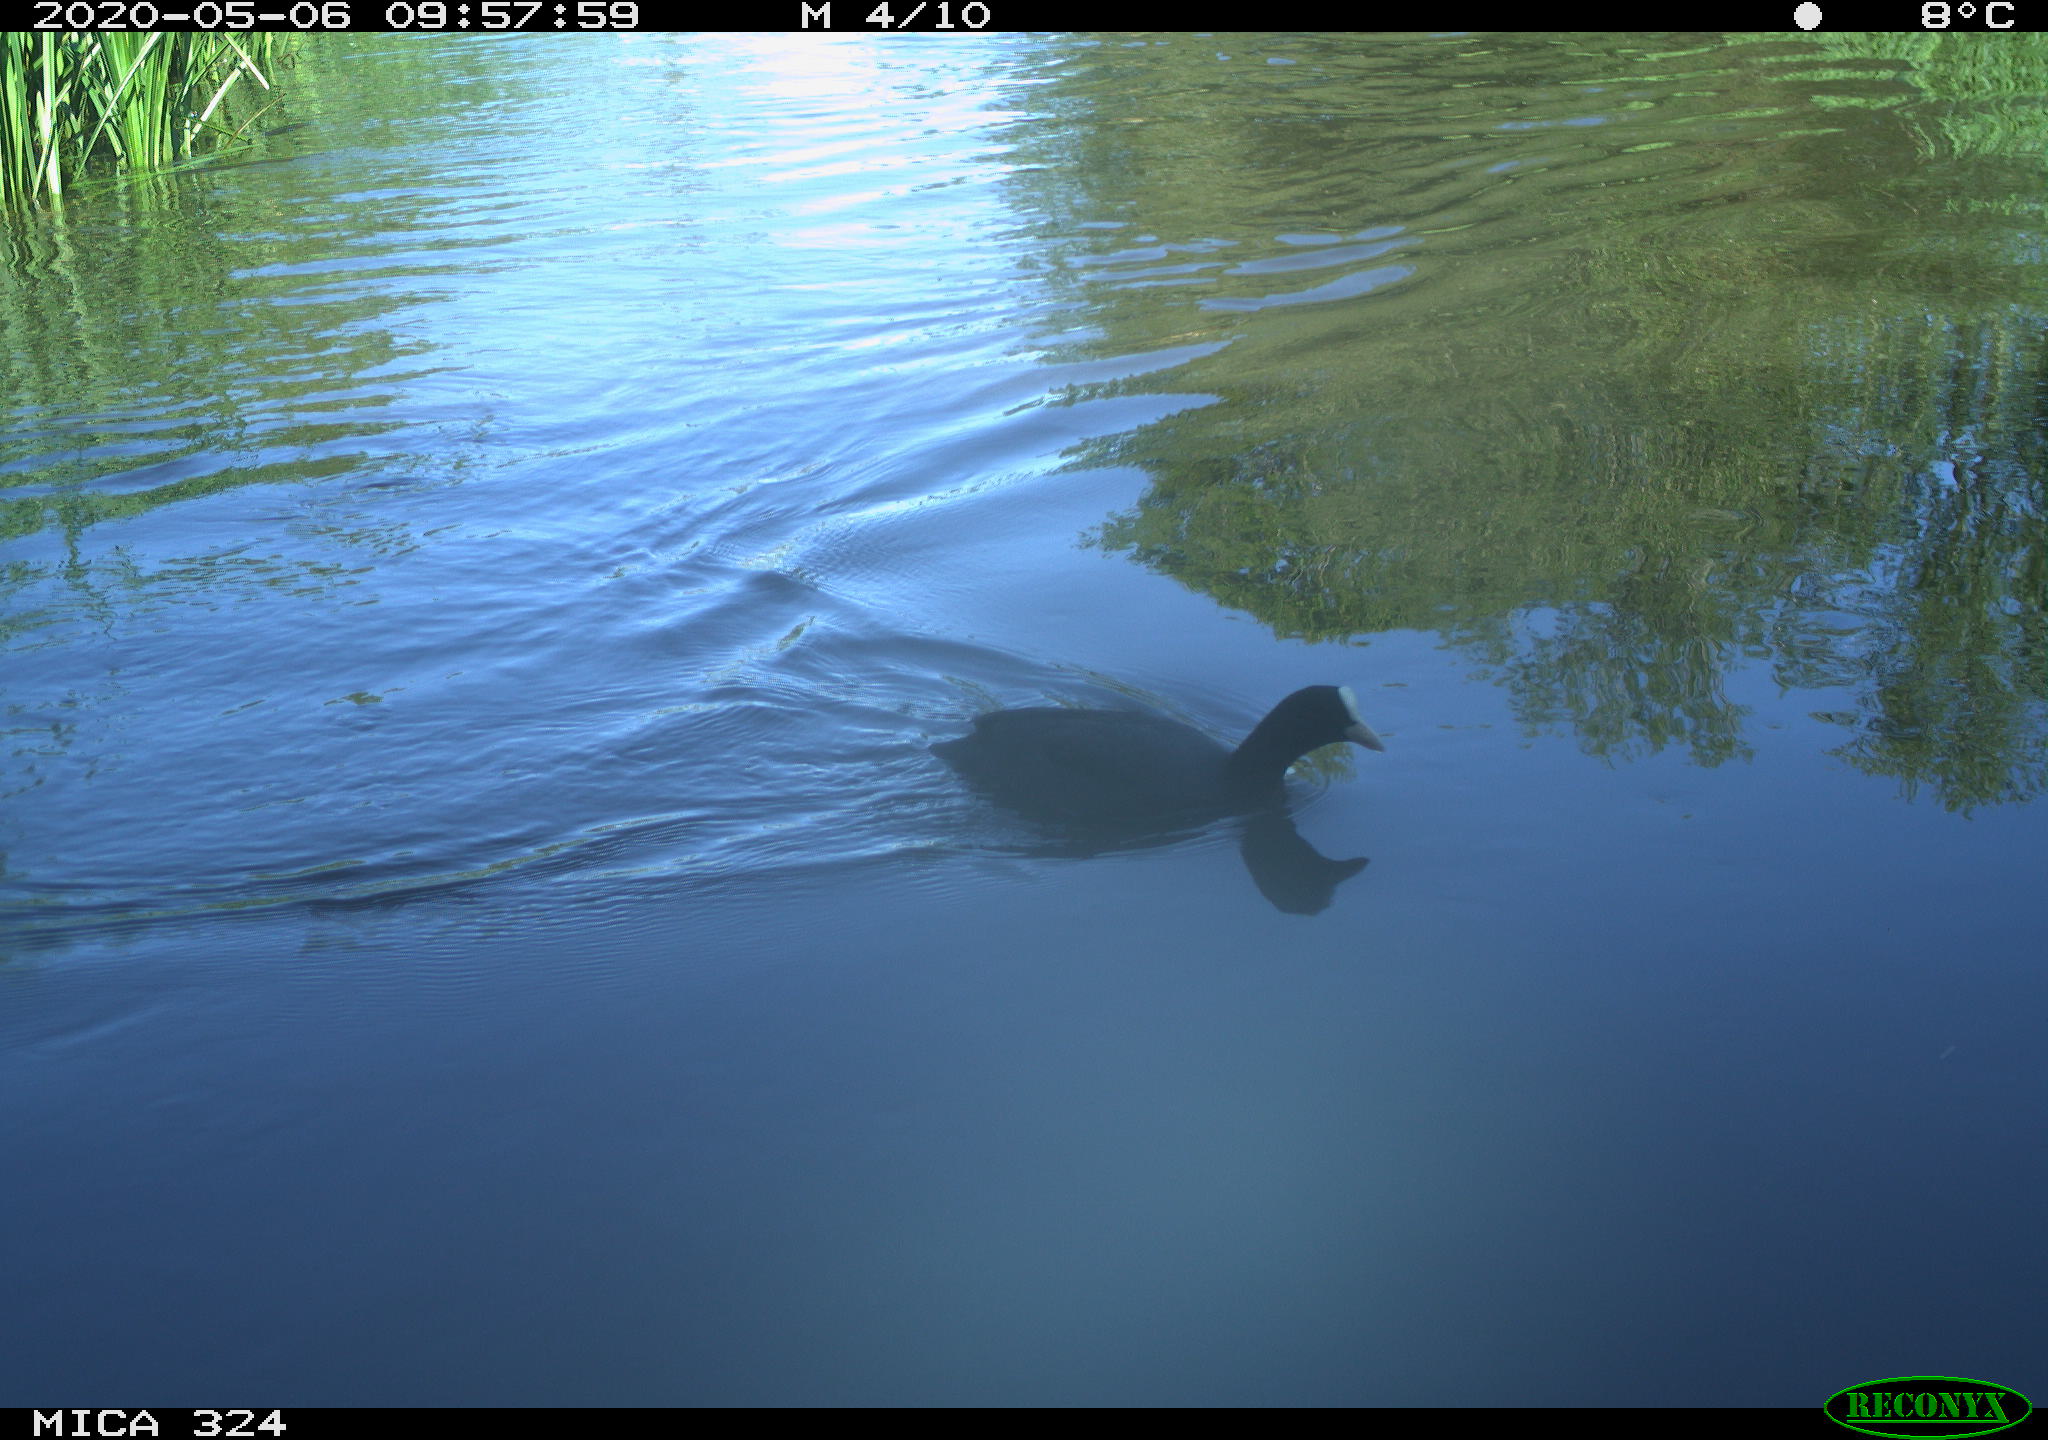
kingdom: Animalia
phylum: Chordata
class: Aves
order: Gruiformes
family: Rallidae
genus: Fulica
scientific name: Fulica atra
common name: Eurasian coot
